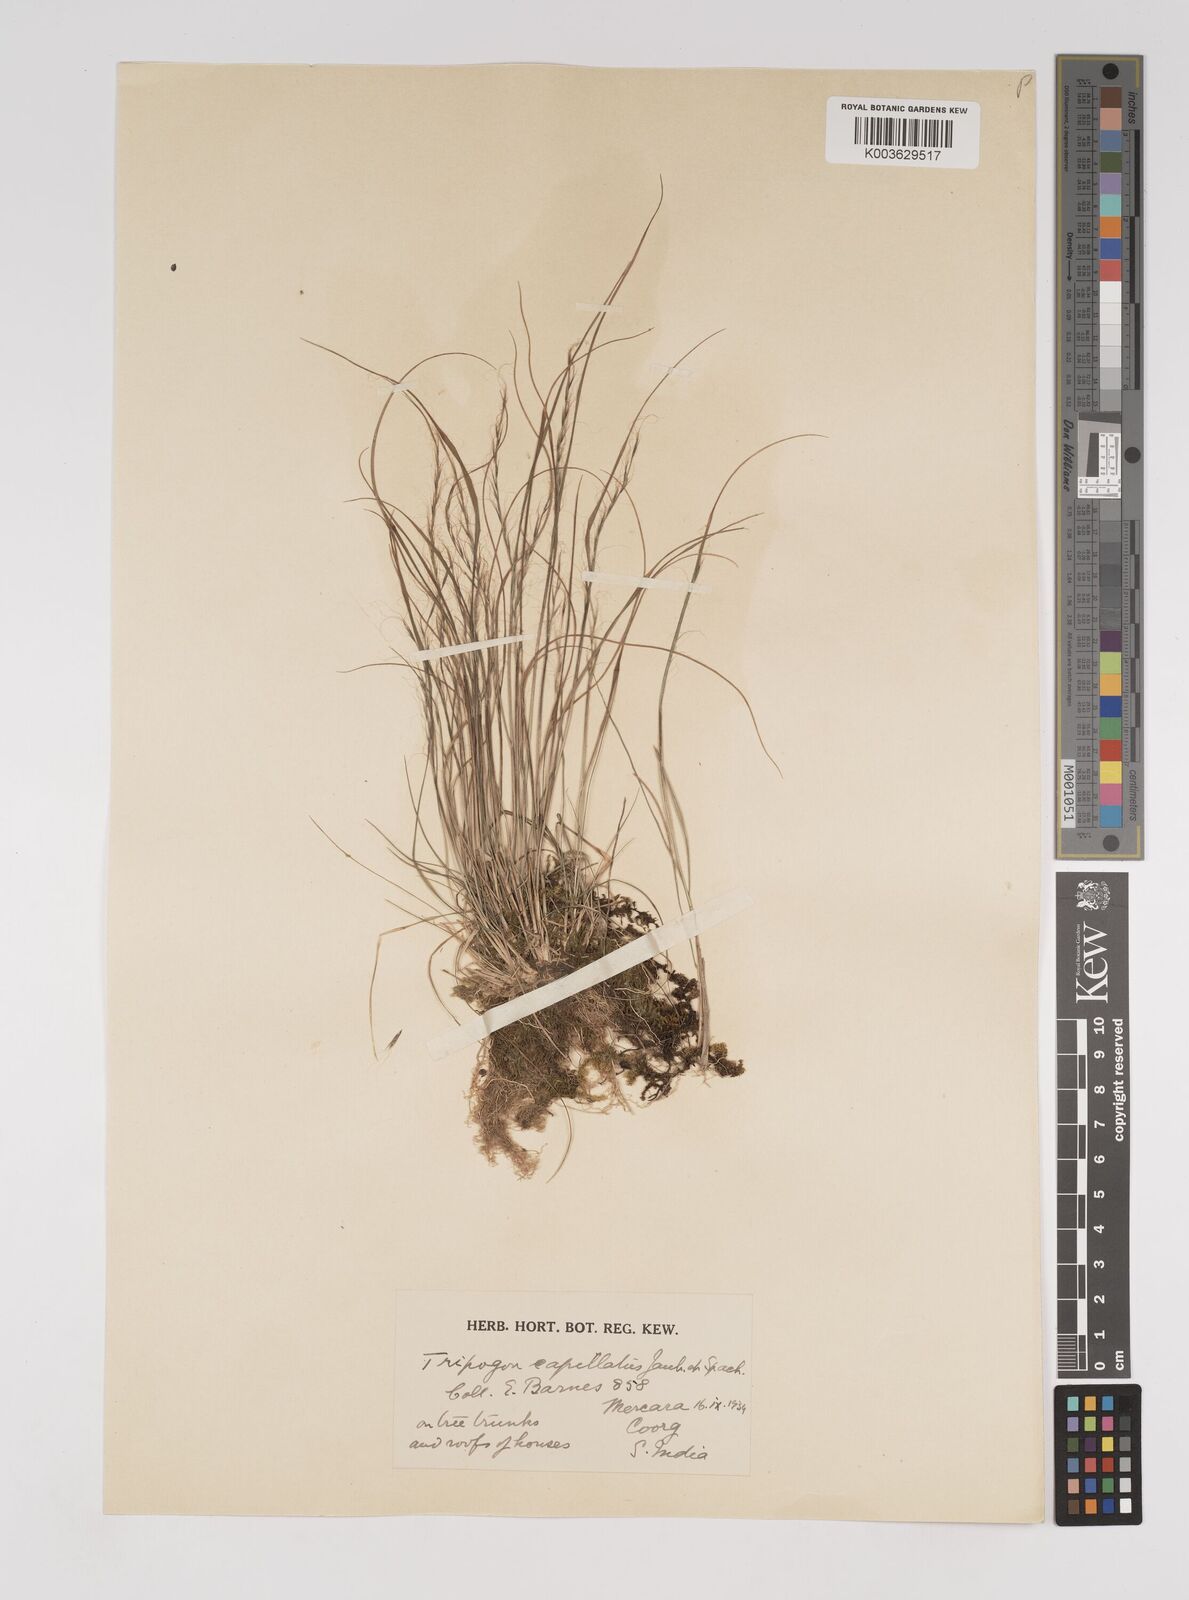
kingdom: Plantae
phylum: Tracheophyta
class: Liliopsida
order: Poales
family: Poaceae
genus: Tripogon
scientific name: Tripogon capillatus
